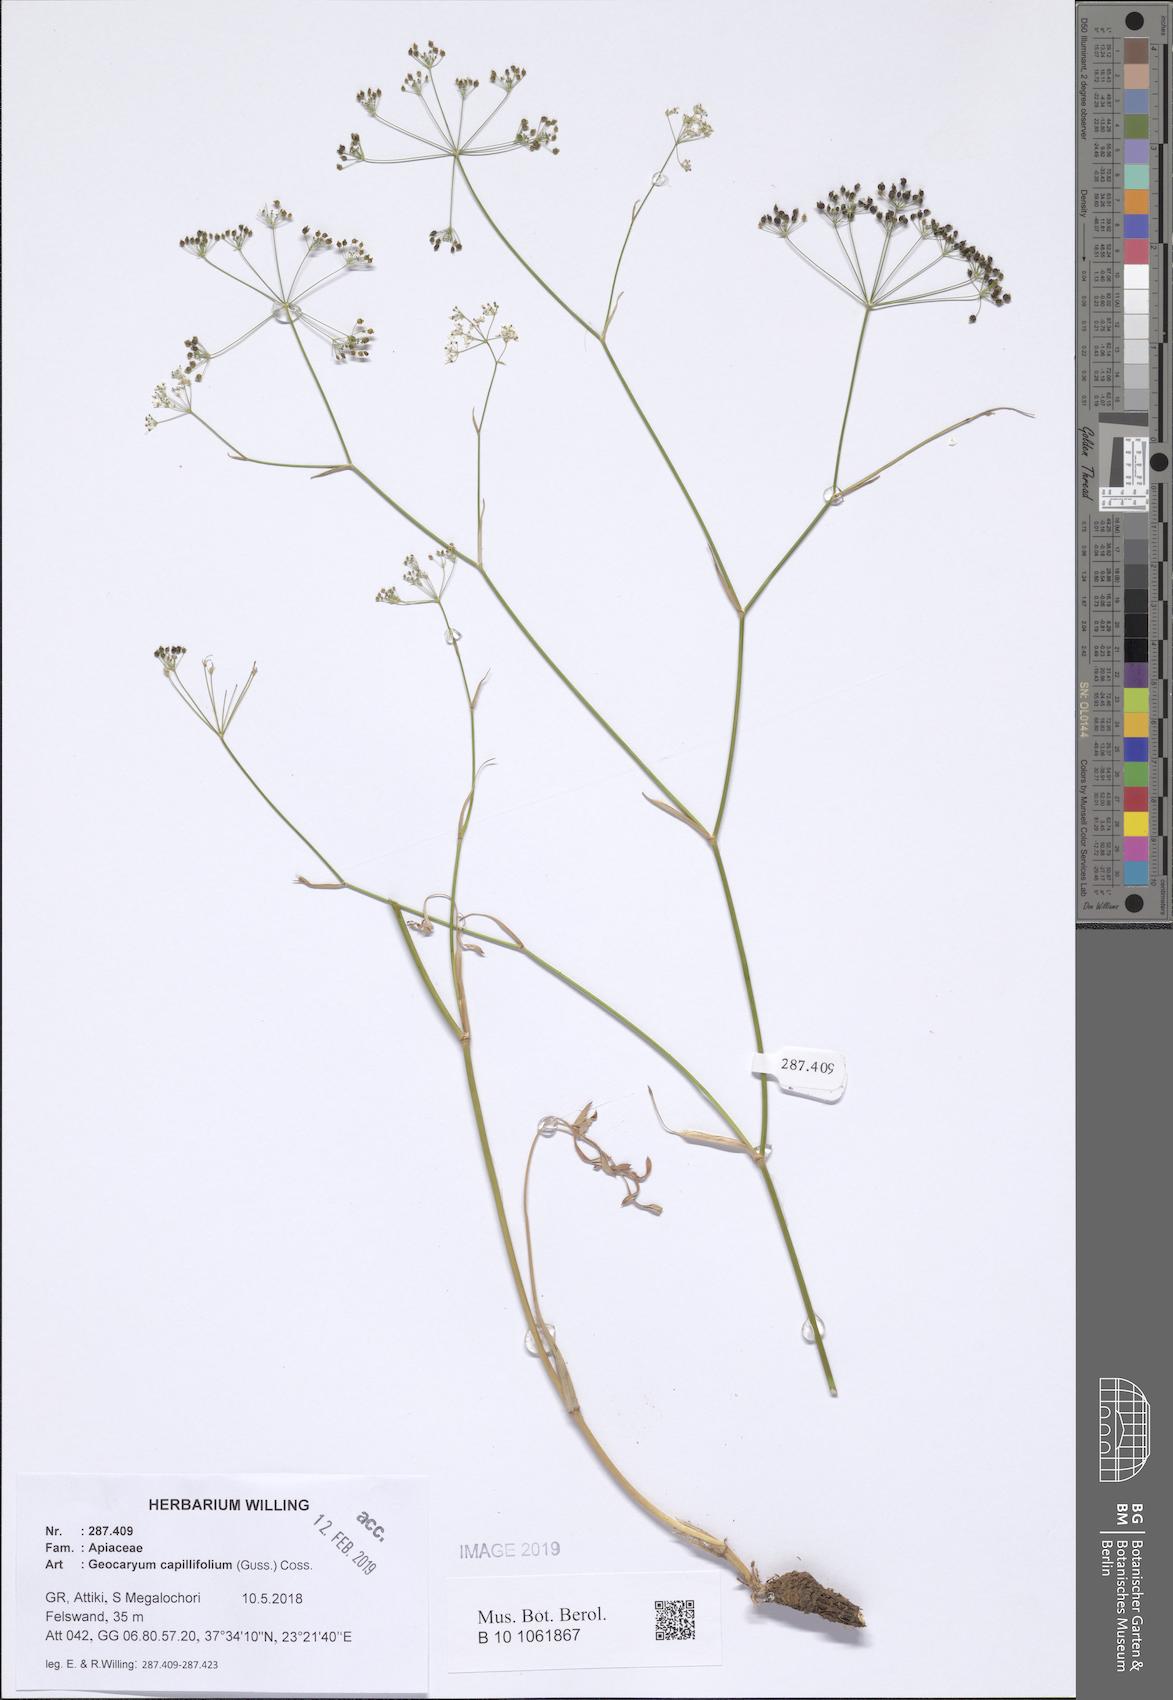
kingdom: Plantae
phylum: Tracheophyta
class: Magnoliopsida
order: Apiales
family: Apiaceae
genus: Geocaryum
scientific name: Geocaryum capillifolium
